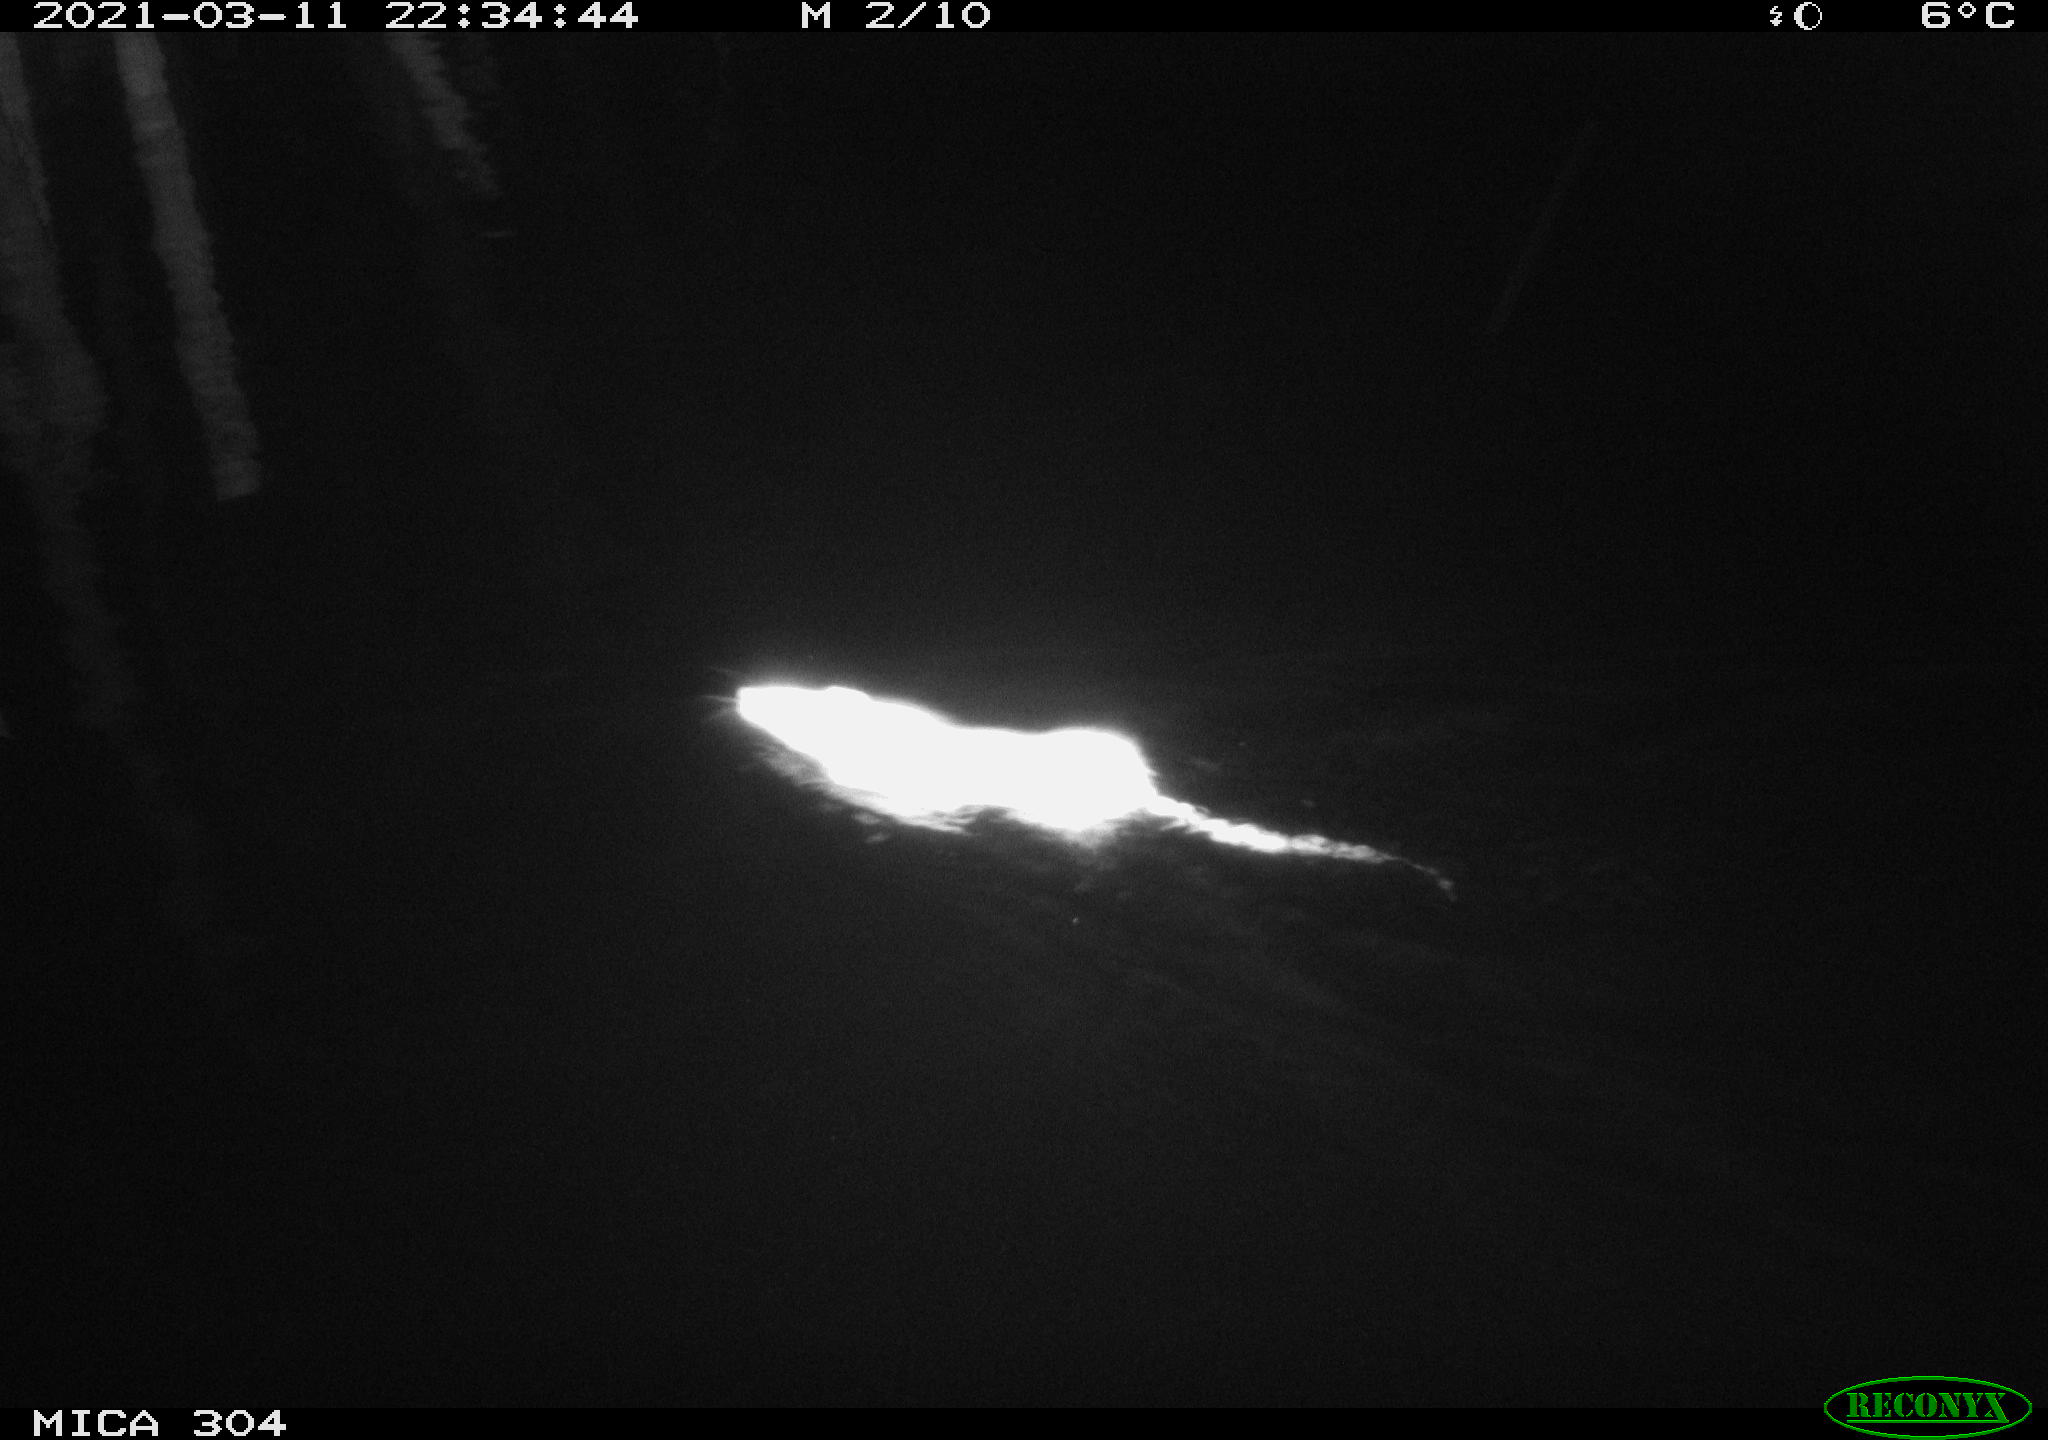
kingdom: Animalia
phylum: Chordata
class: Mammalia
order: Rodentia
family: Muridae
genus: Rattus
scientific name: Rattus norvegicus
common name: Brown rat
